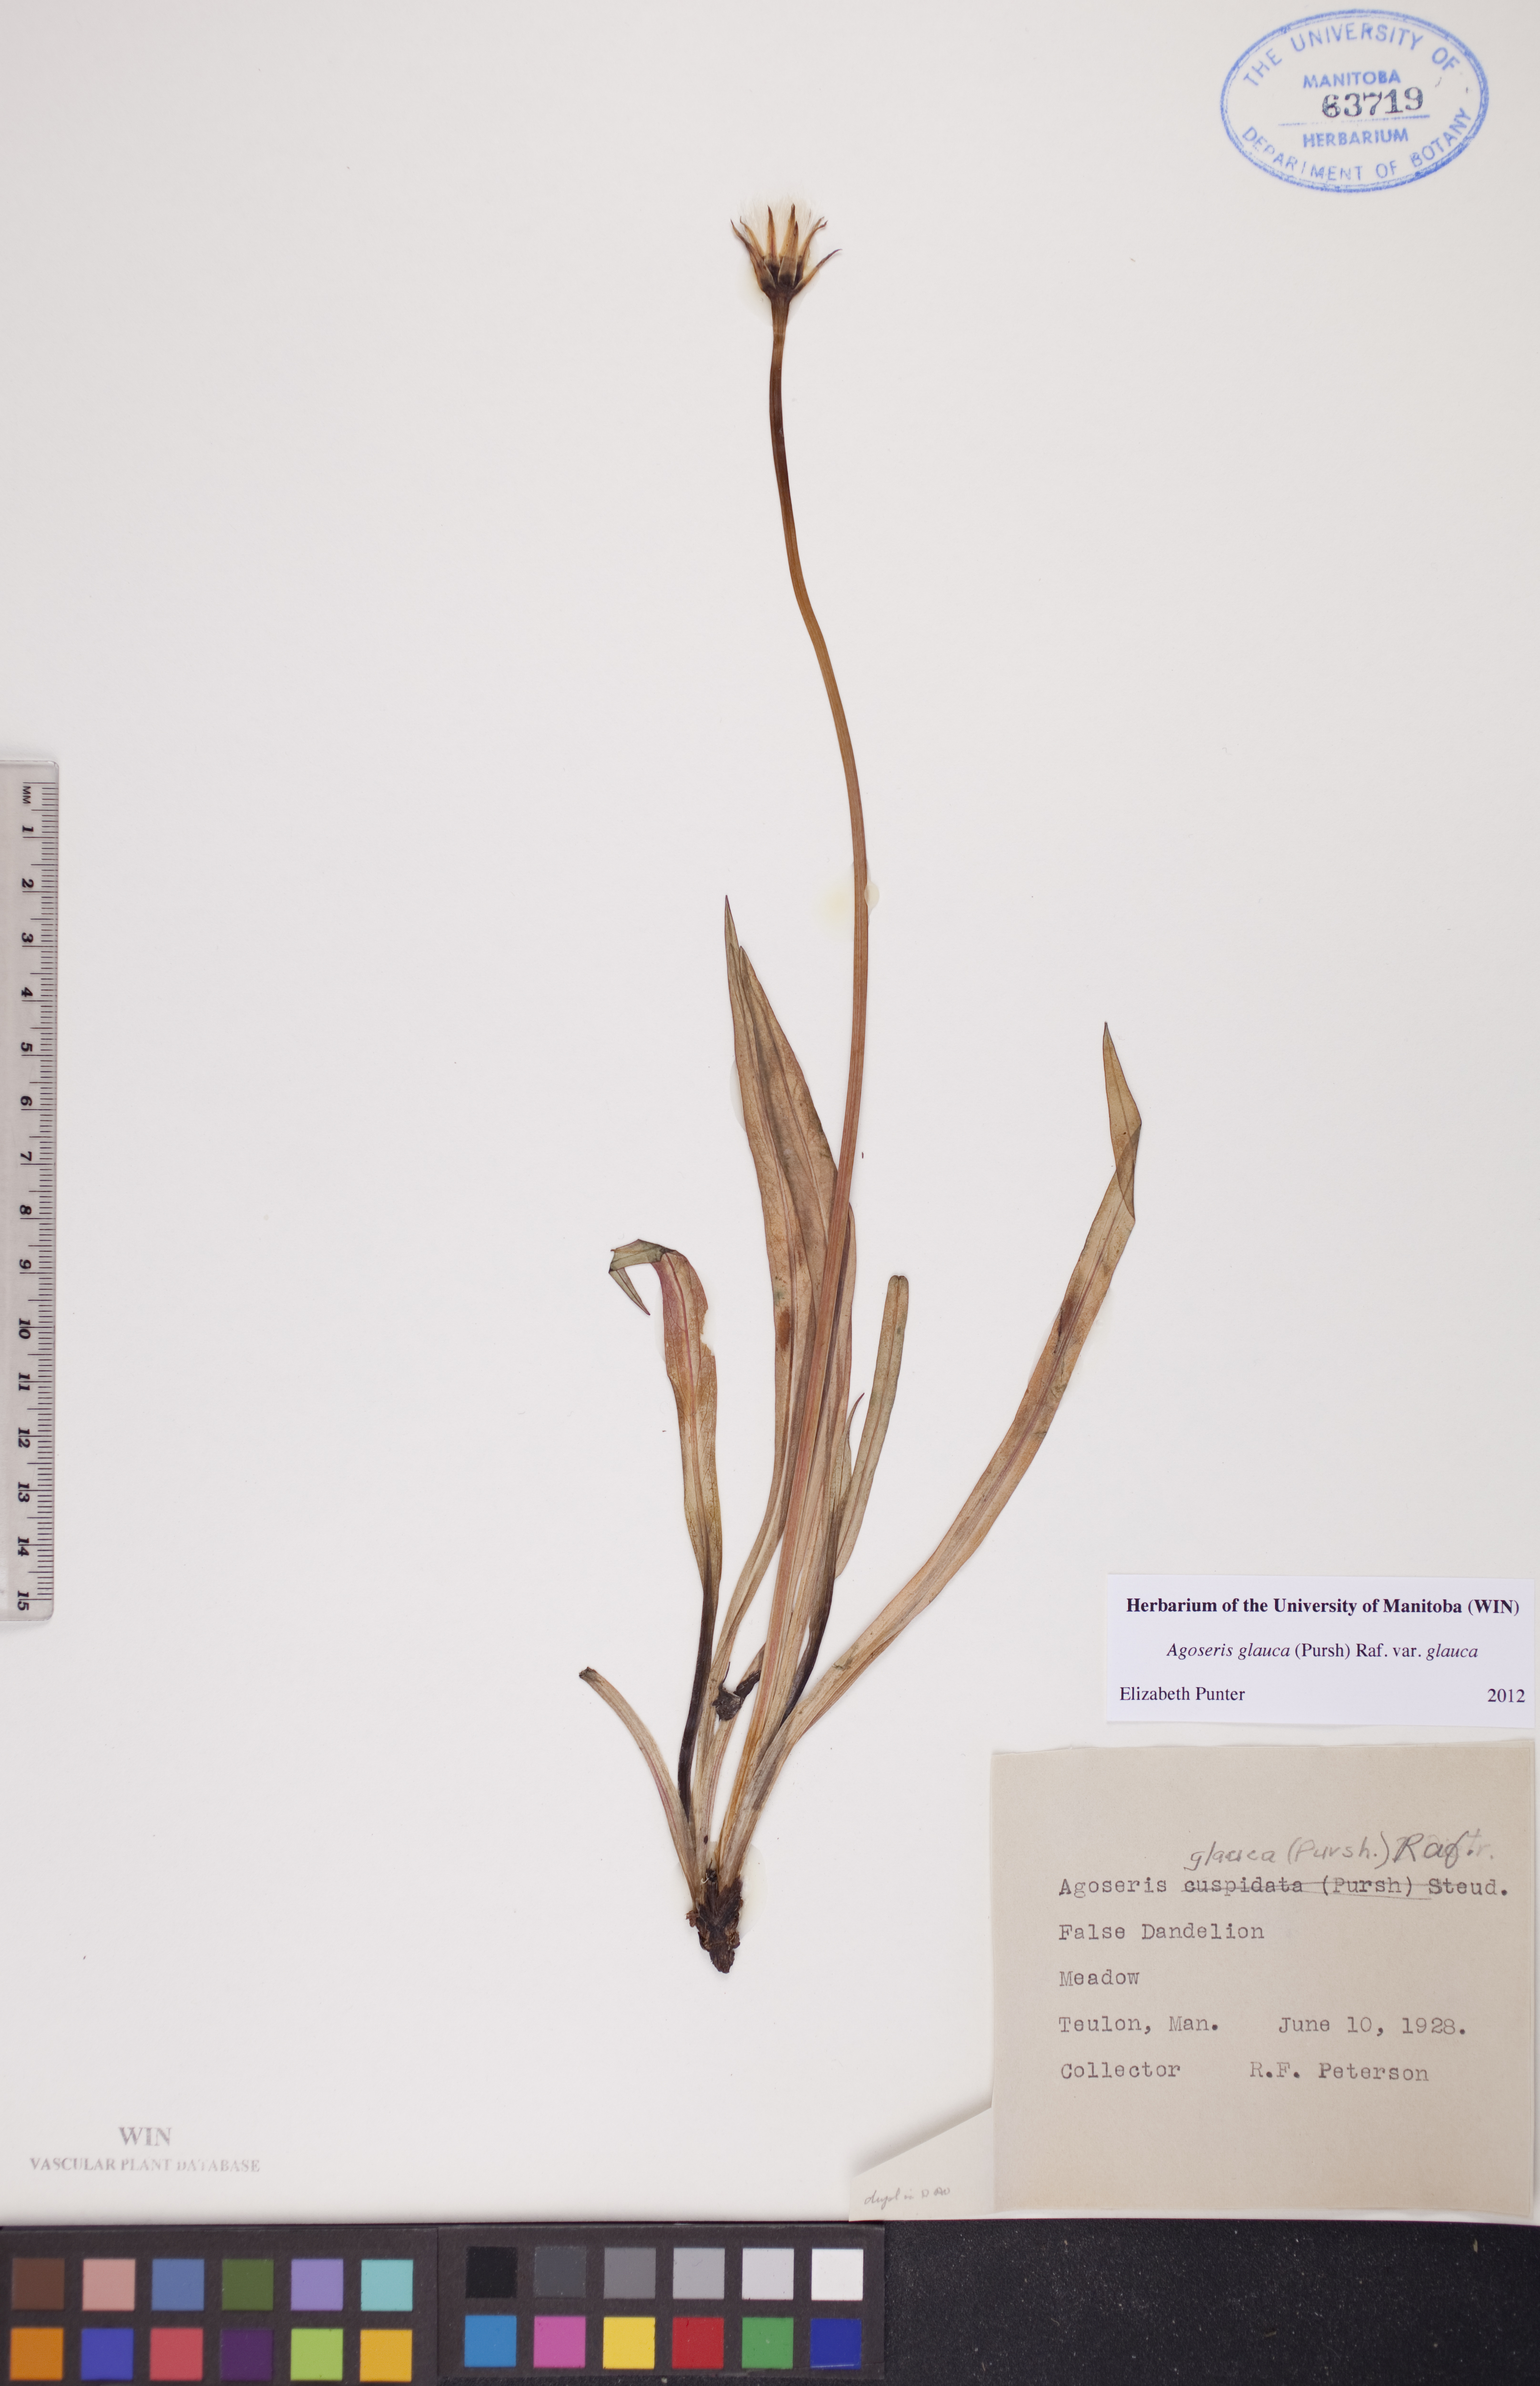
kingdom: Plantae
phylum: Tracheophyta
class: Magnoliopsida
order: Asterales
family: Asteraceae
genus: Agoseris
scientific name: Agoseris glauca
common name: Prairie agoseris
